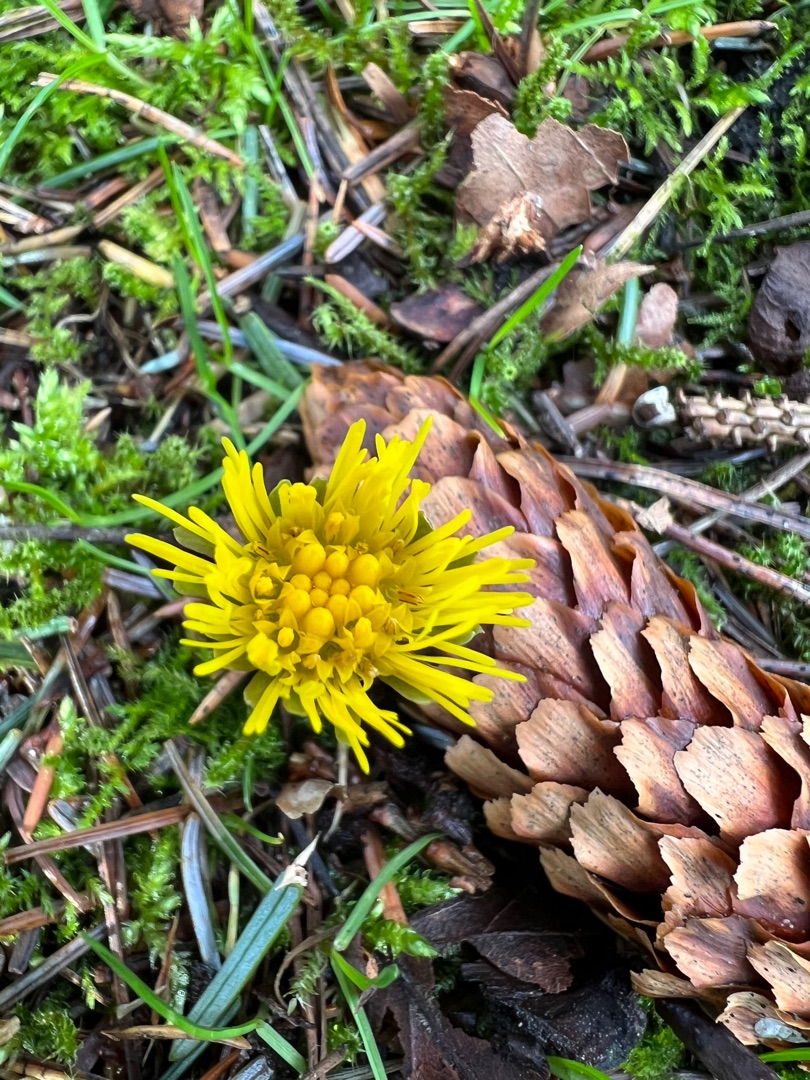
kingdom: Plantae
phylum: Tracheophyta
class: Magnoliopsida
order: Asterales
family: Asteraceae
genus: Tussilago
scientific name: Tussilago farfara
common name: Følfod
